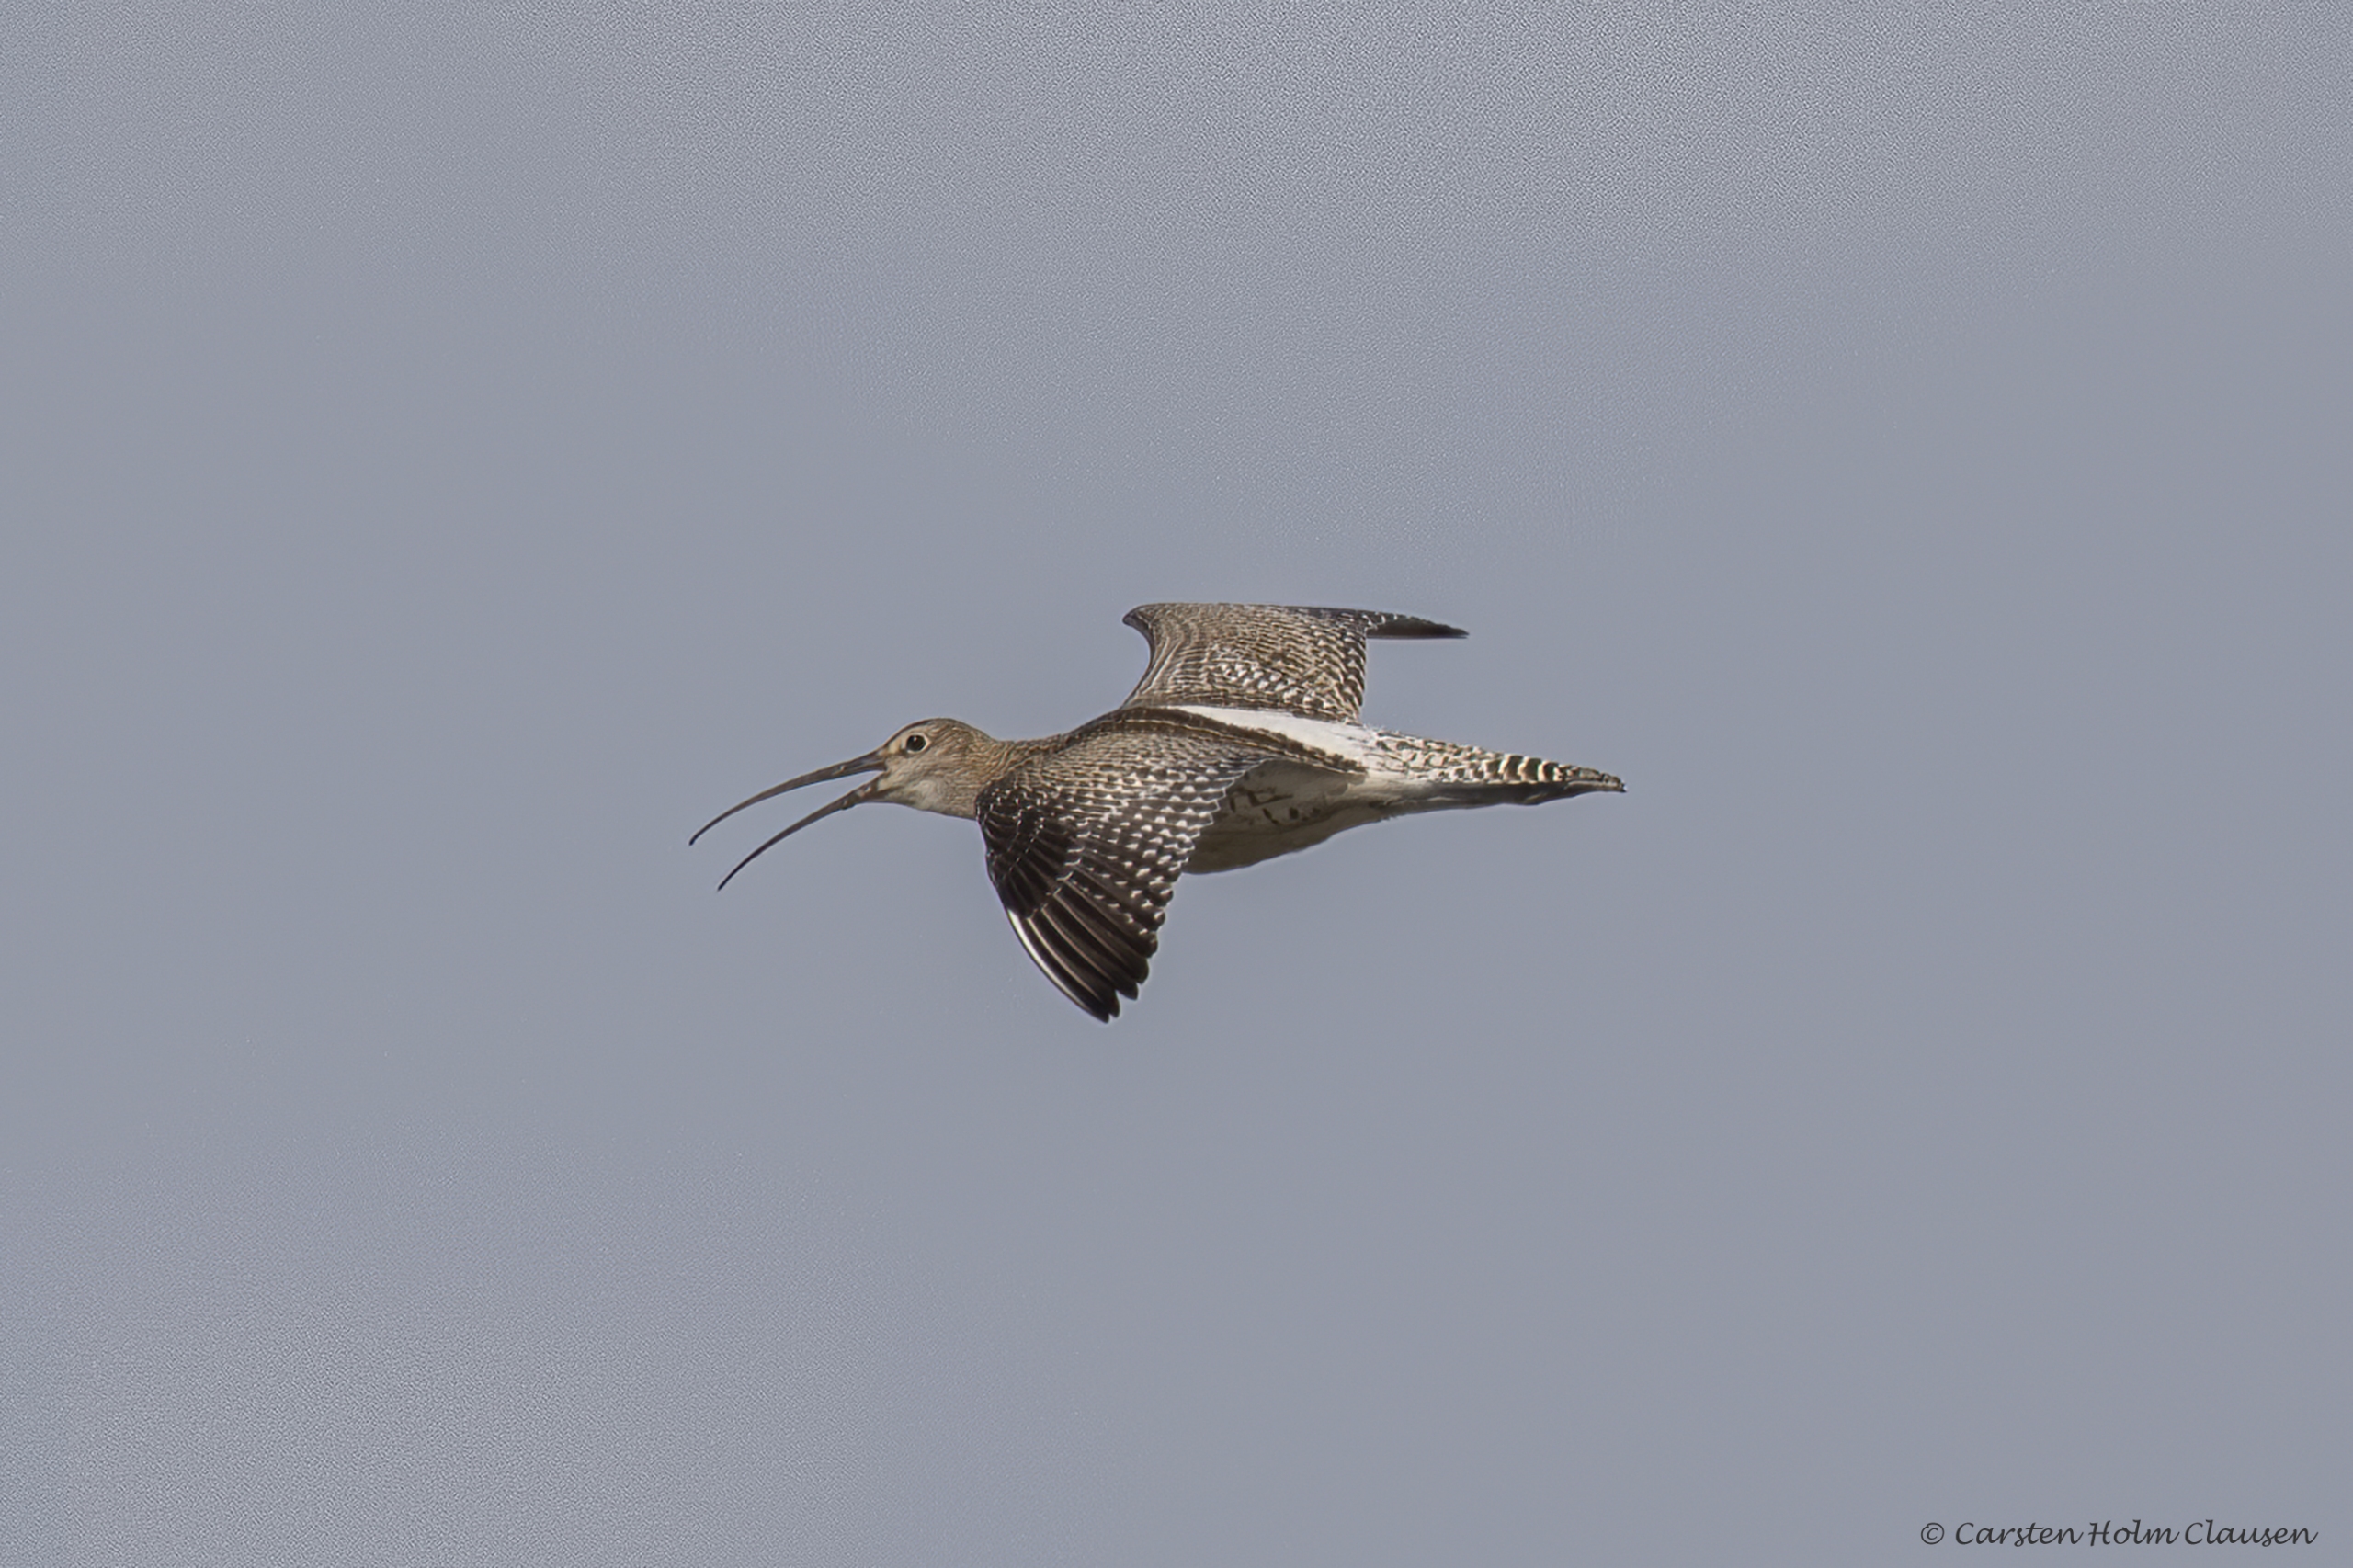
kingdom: Animalia
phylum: Chordata
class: Aves
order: Charadriiformes
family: Scolopacidae
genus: Numenius
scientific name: Numenius arquata
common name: Storspove
